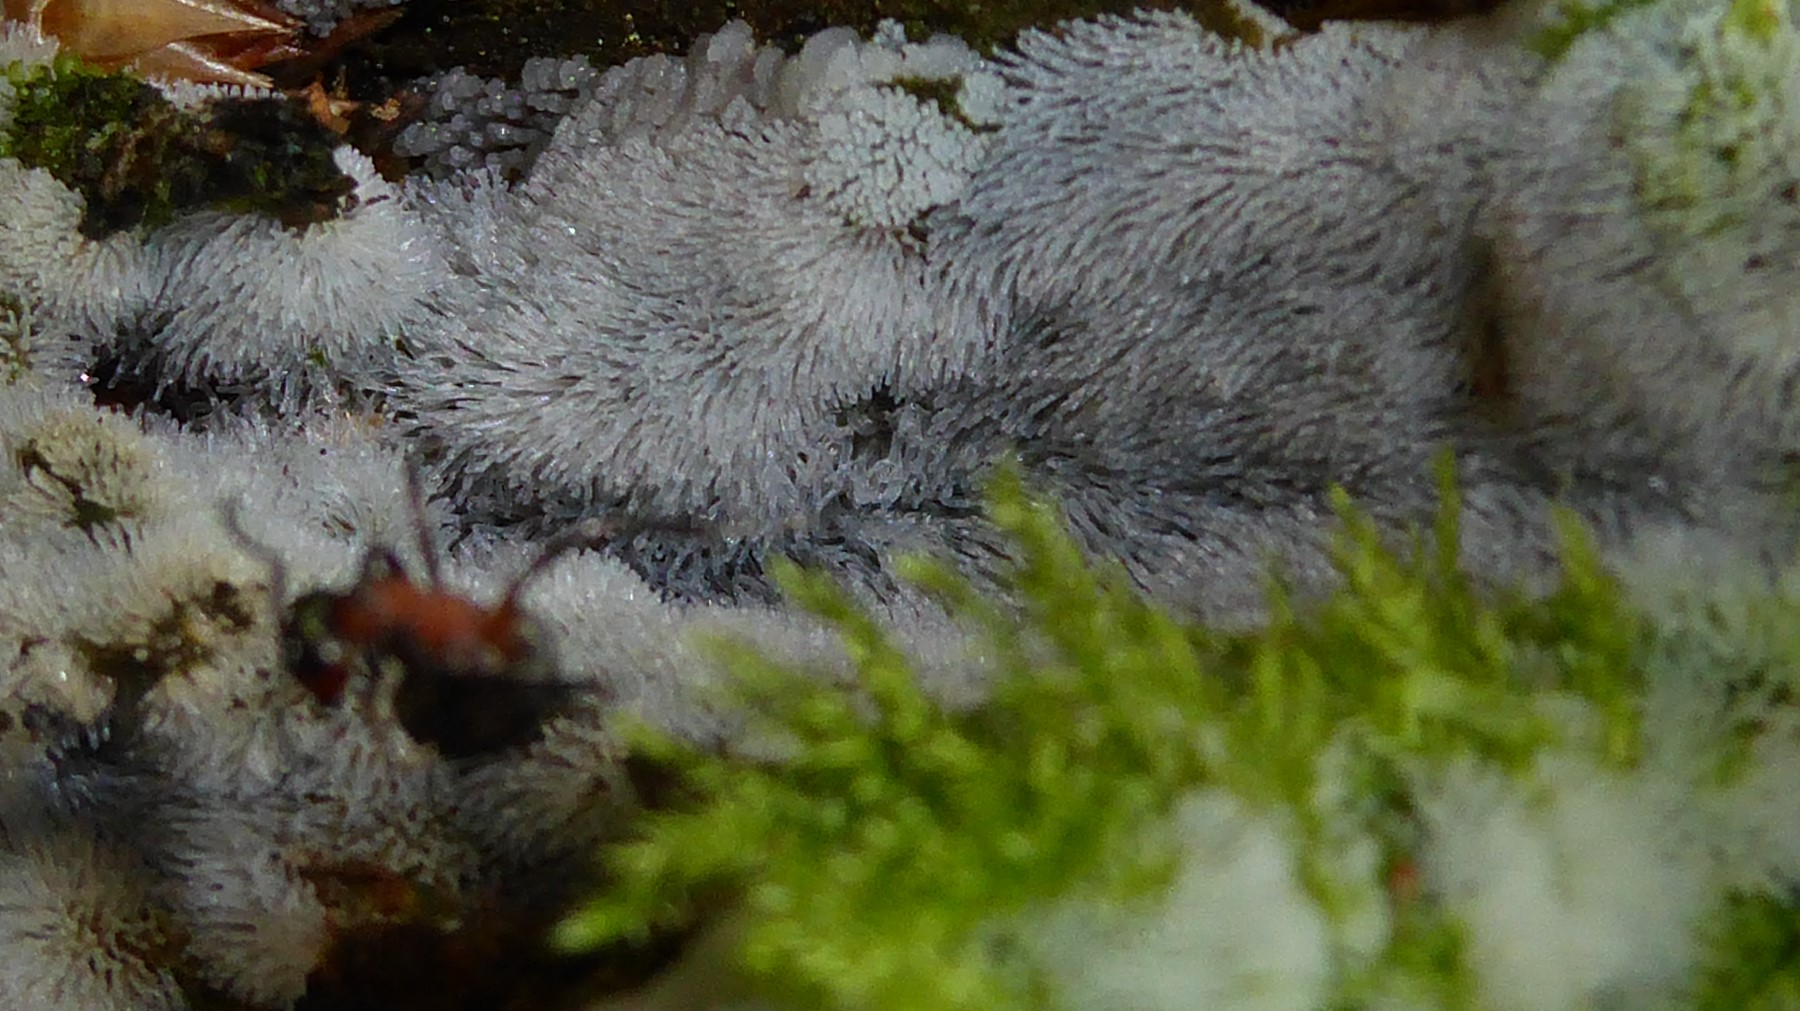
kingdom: Protozoa
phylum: Mycetozoa
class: Protosteliomycetes
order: Ceratiomyxales
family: Ceratiomyxaceae
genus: Ceratiomyxa
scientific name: Ceratiomyxa fruticulosa
